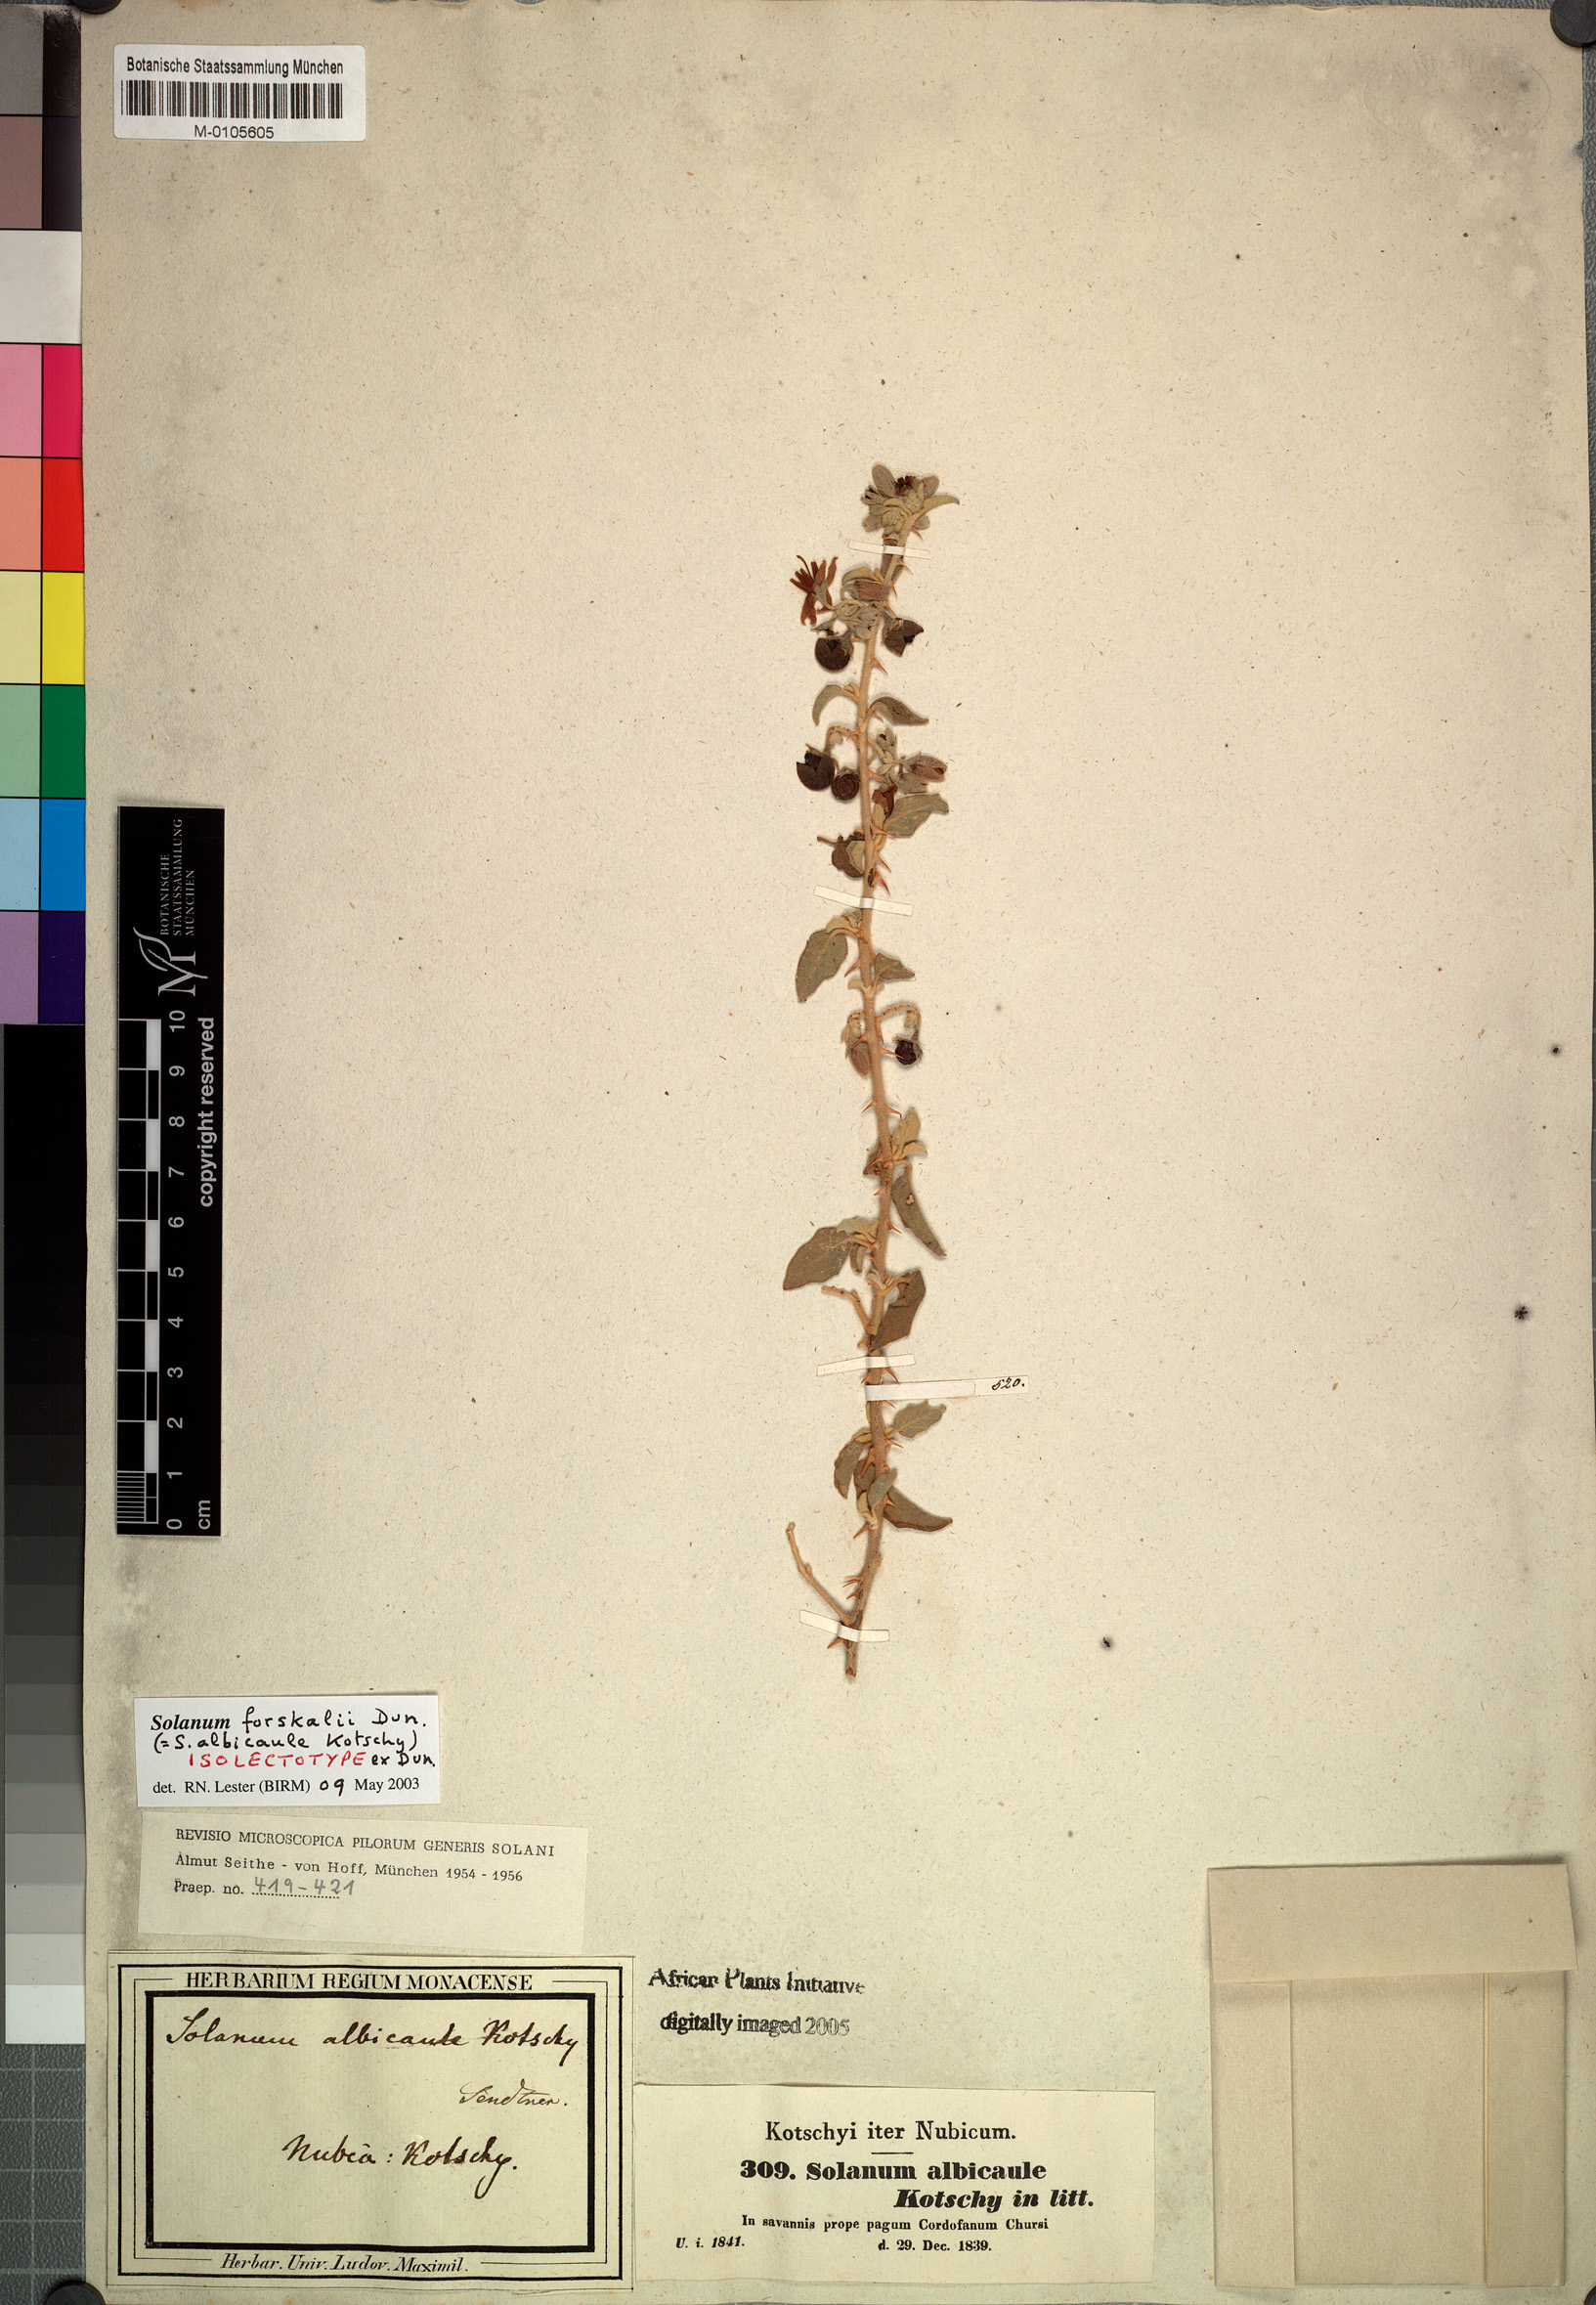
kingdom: Plantae
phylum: Tracheophyta
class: Magnoliopsida
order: Solanales
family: Solanaceae
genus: Solanum
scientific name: Solanum forskalii
